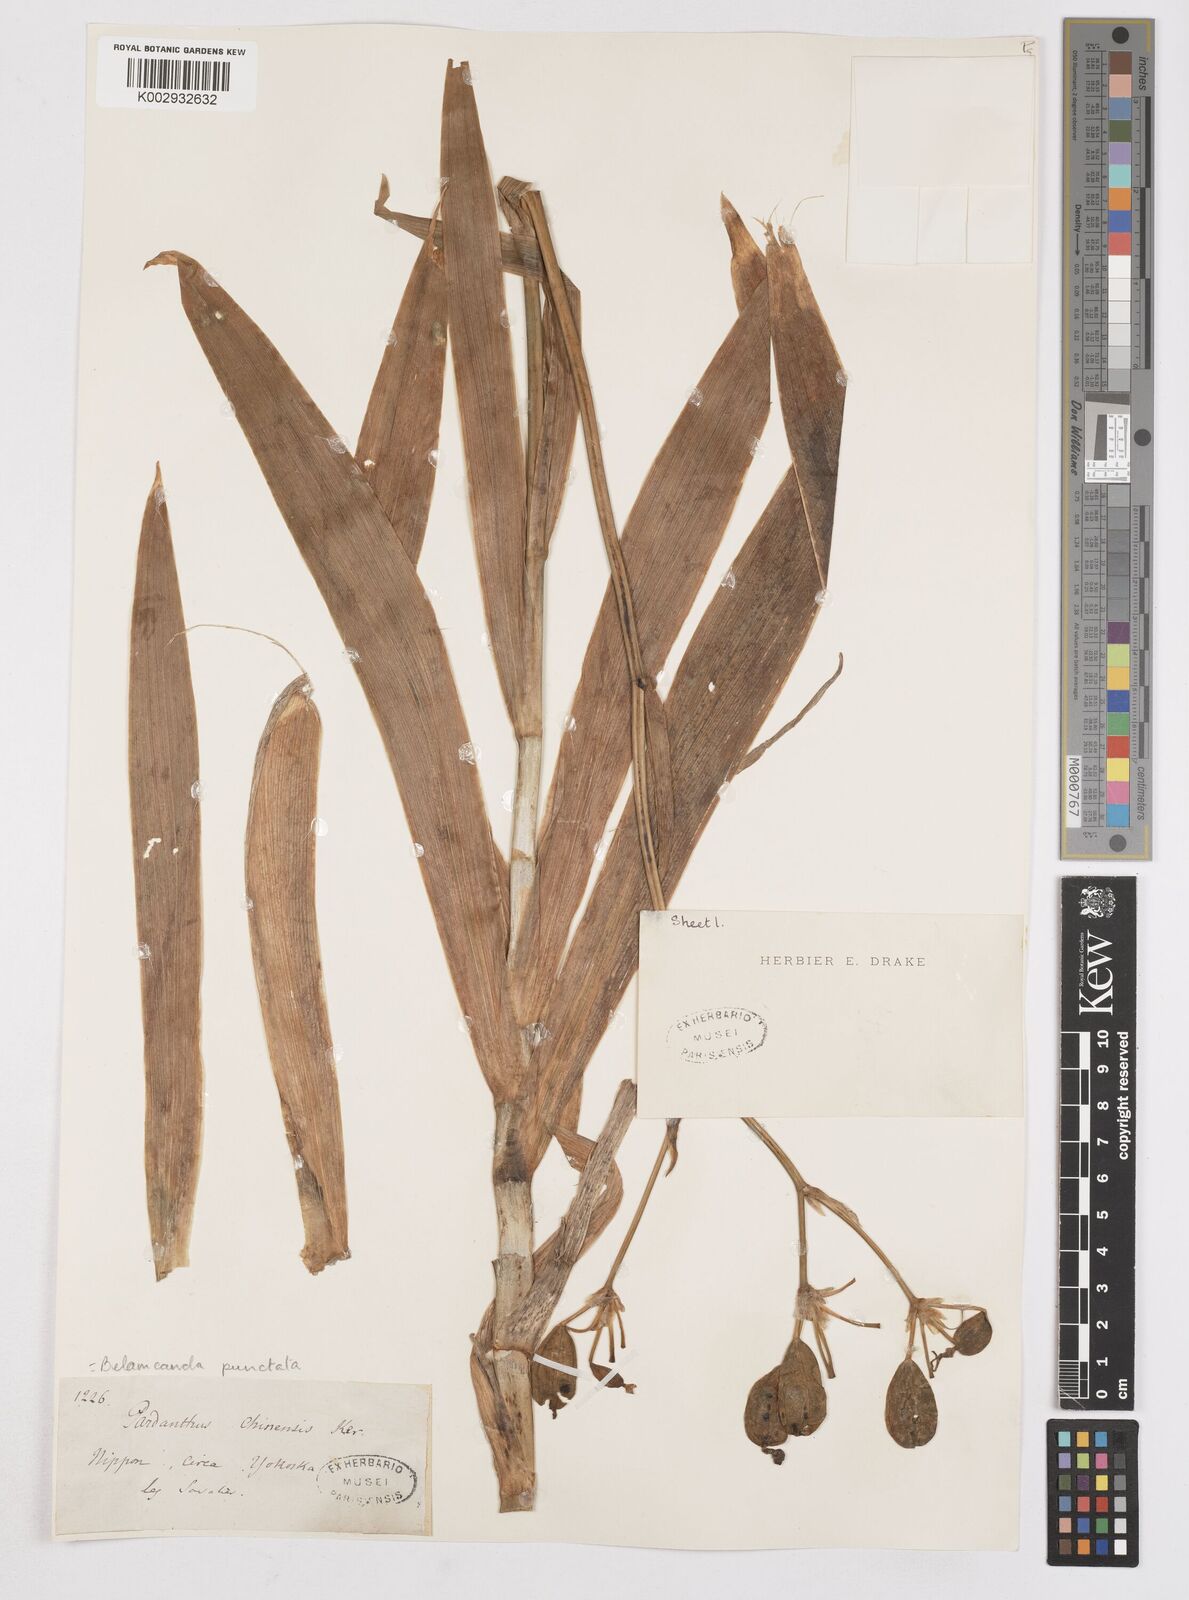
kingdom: Plantae
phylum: Tracheophyta
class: Liliopsida
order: Asparagales
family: Iridaceae
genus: Iris
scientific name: Iris
